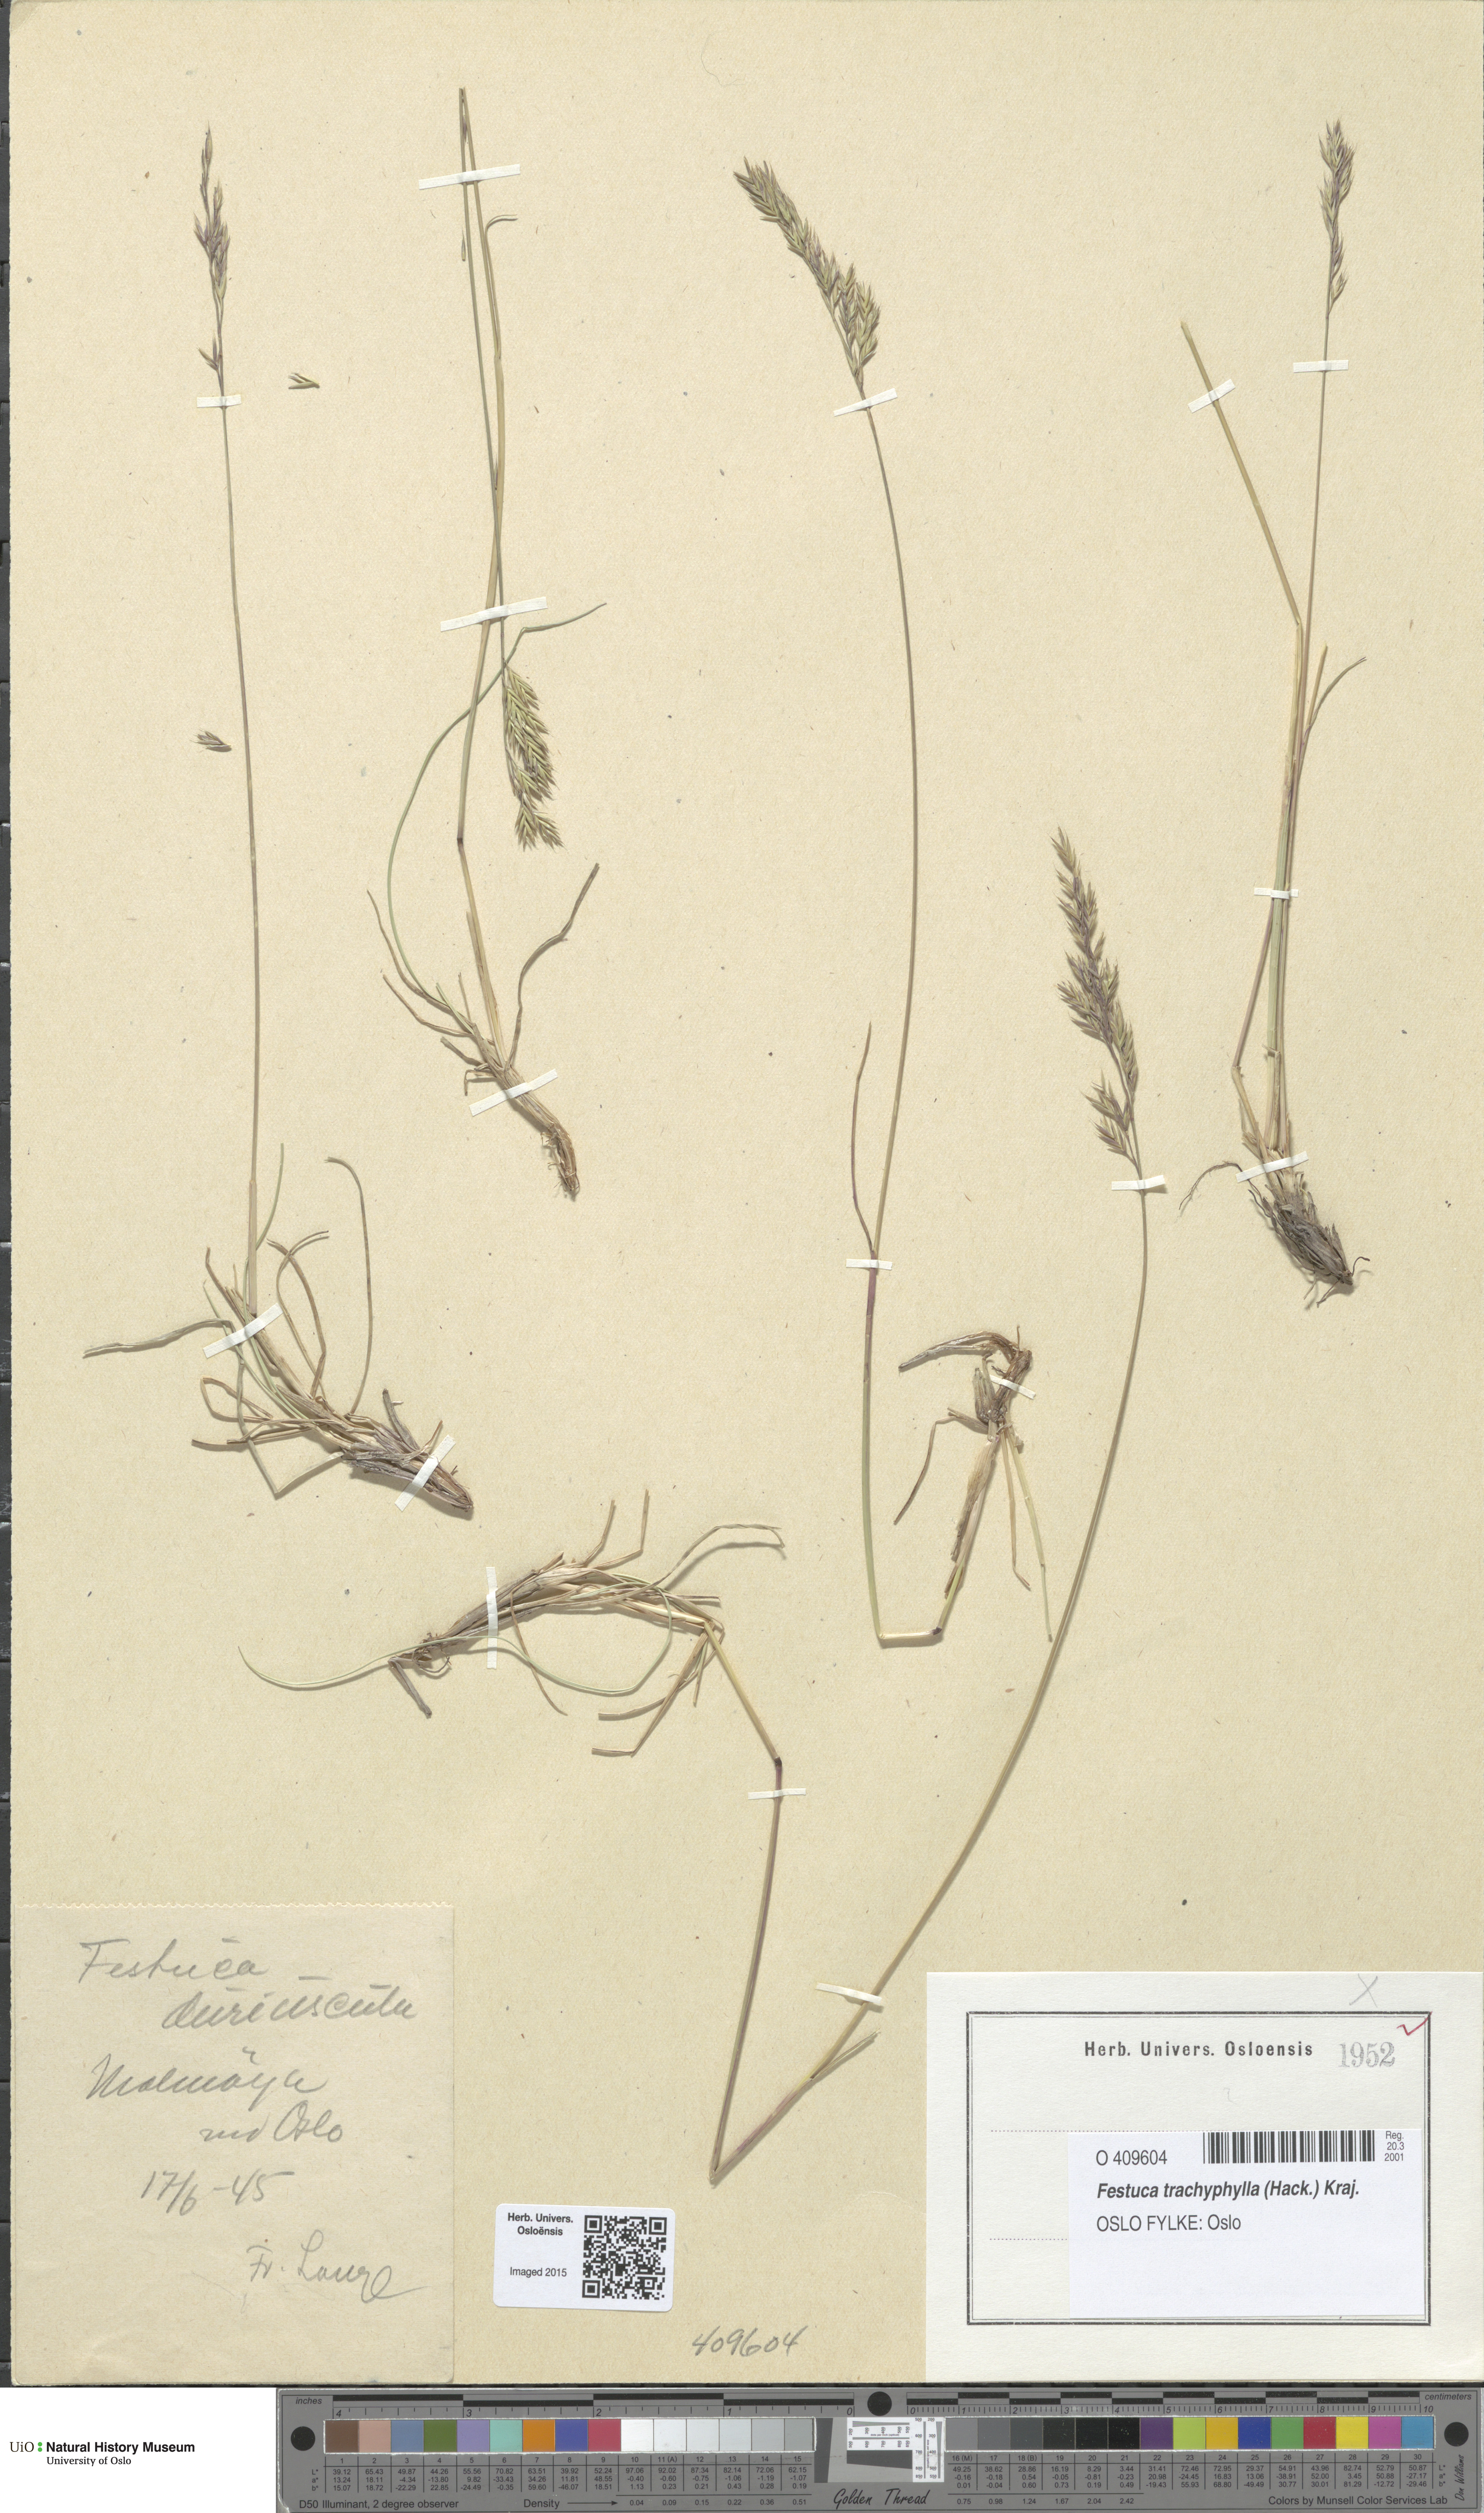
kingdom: Plantae
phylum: Tracheophyta
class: Liliopsida
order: Poales
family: Poaceae
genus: Festuca
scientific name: Festuca trachyphylla
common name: Hard fescue
